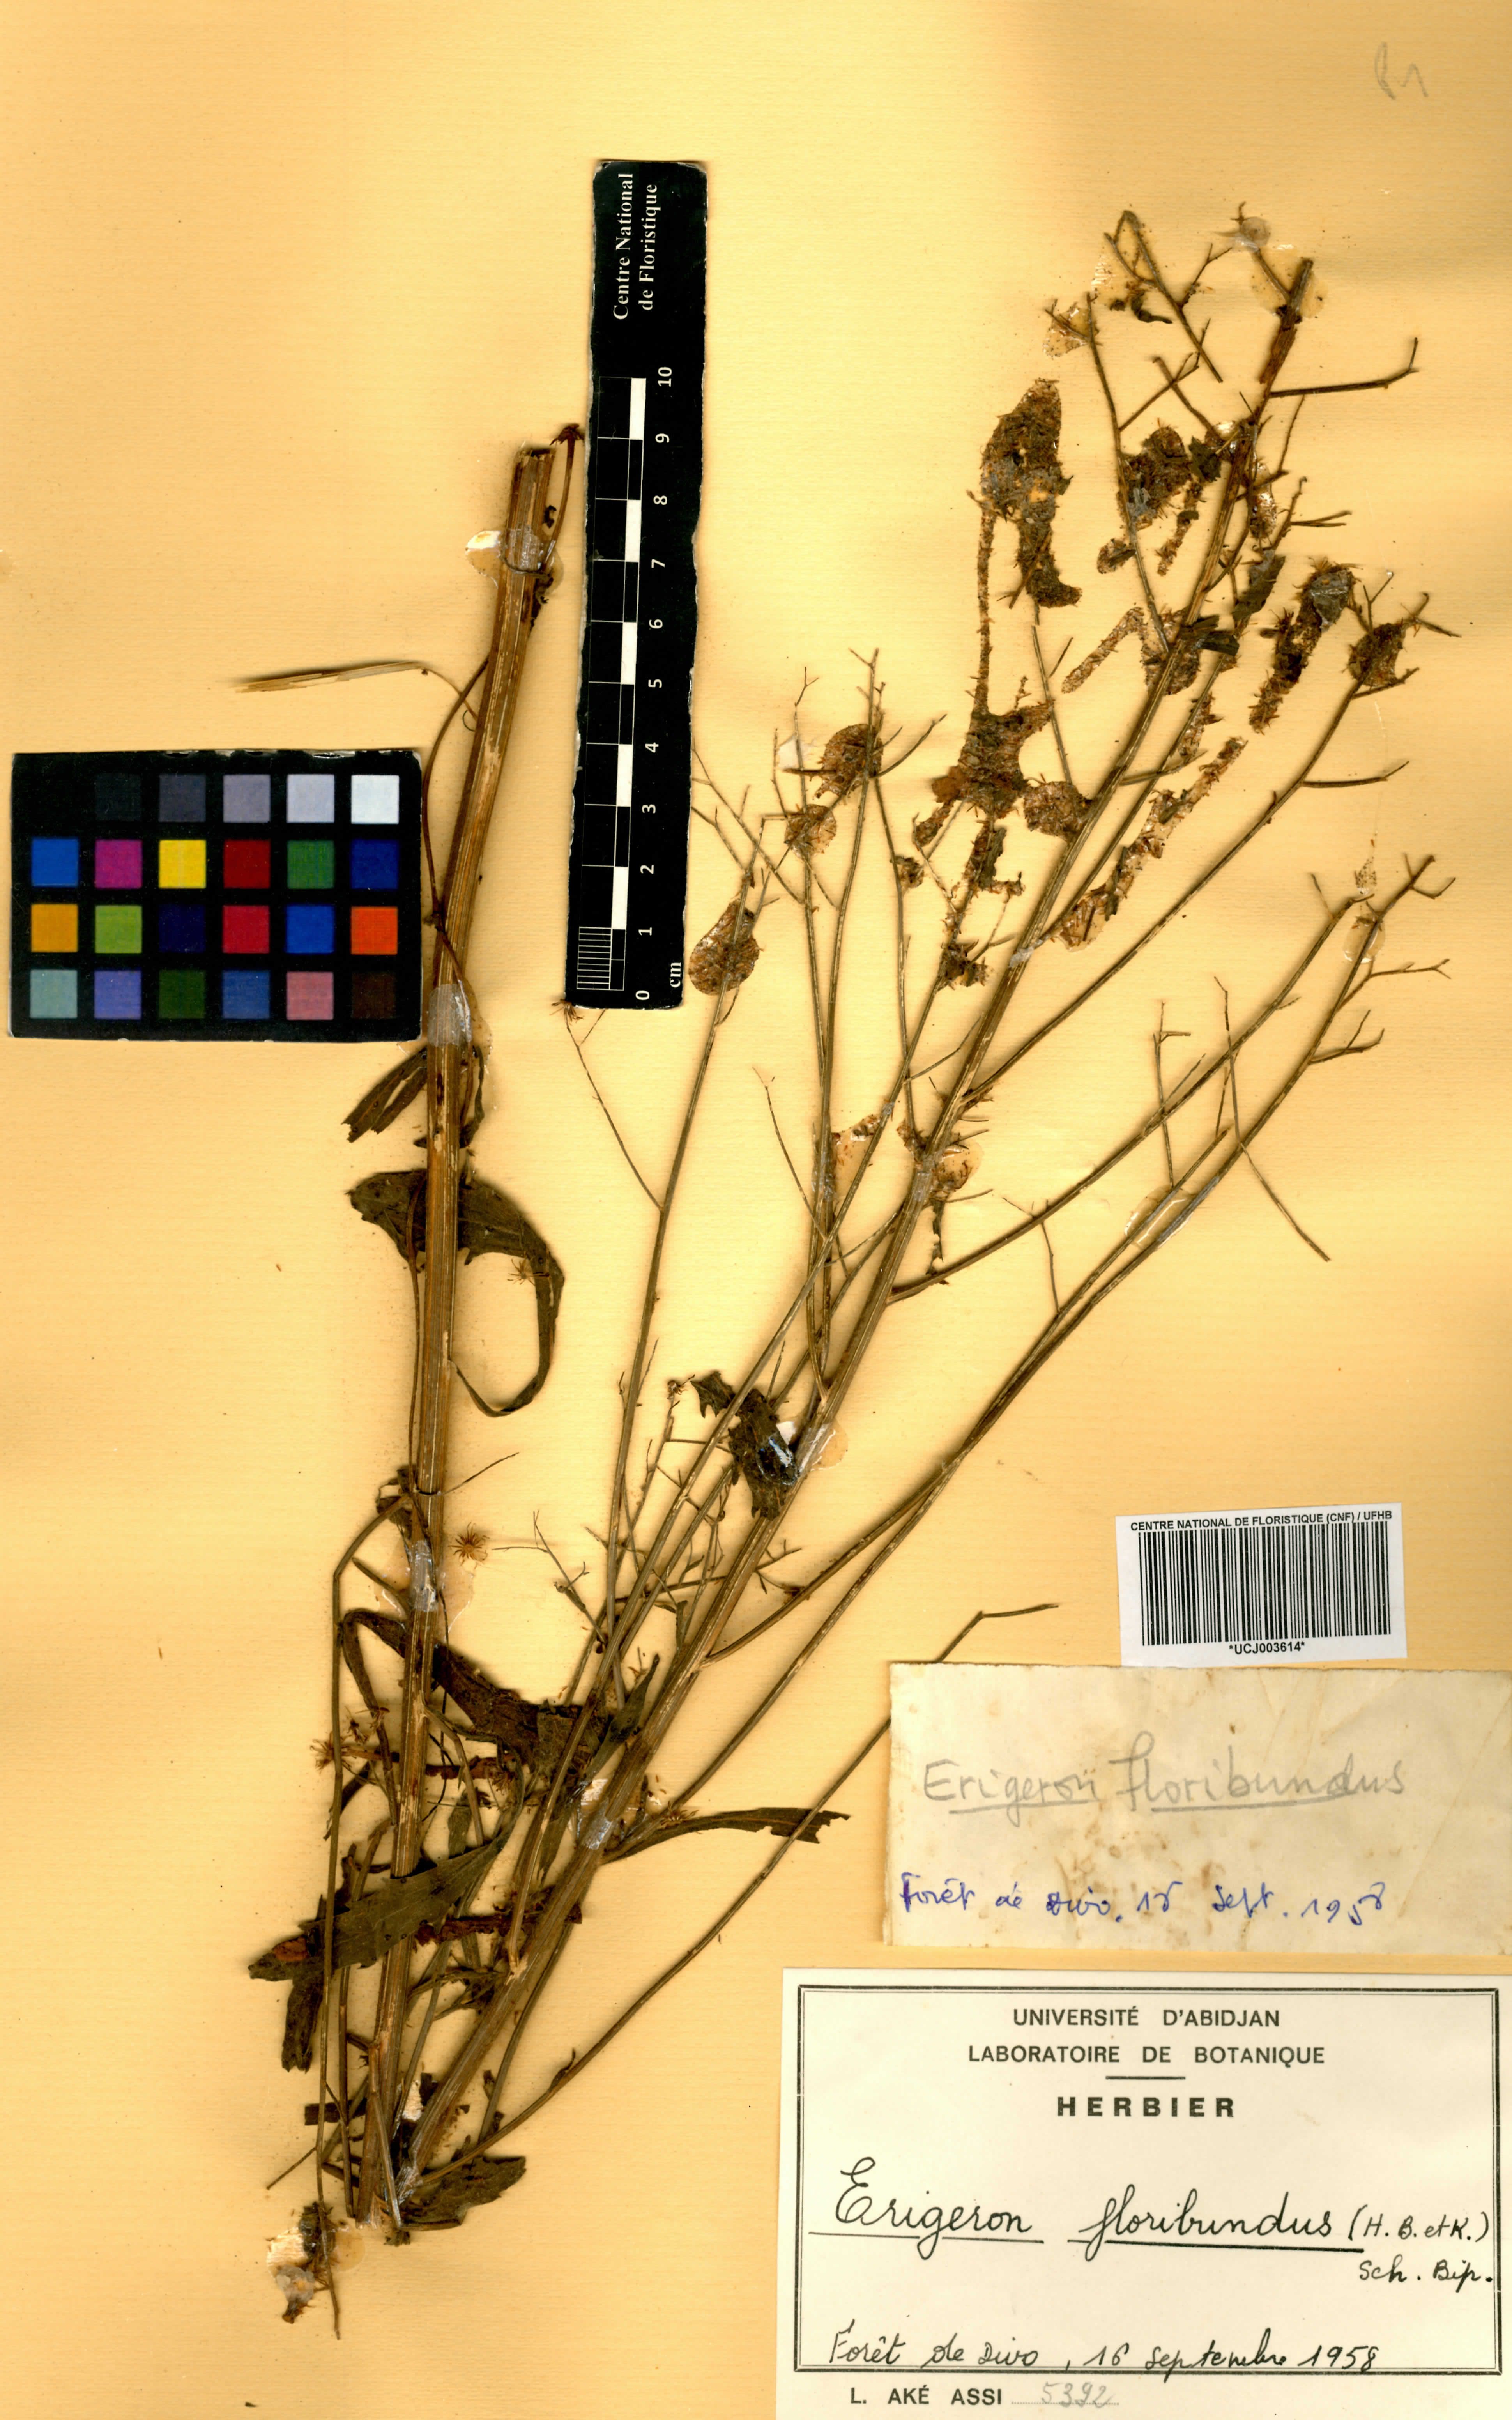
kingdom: Plantae
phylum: Tracheophyta
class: Magnoliopsida
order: Asterales
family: Asteraceae
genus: Erigeron
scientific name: Erigeron floribundus
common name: Bilbao fleabane
